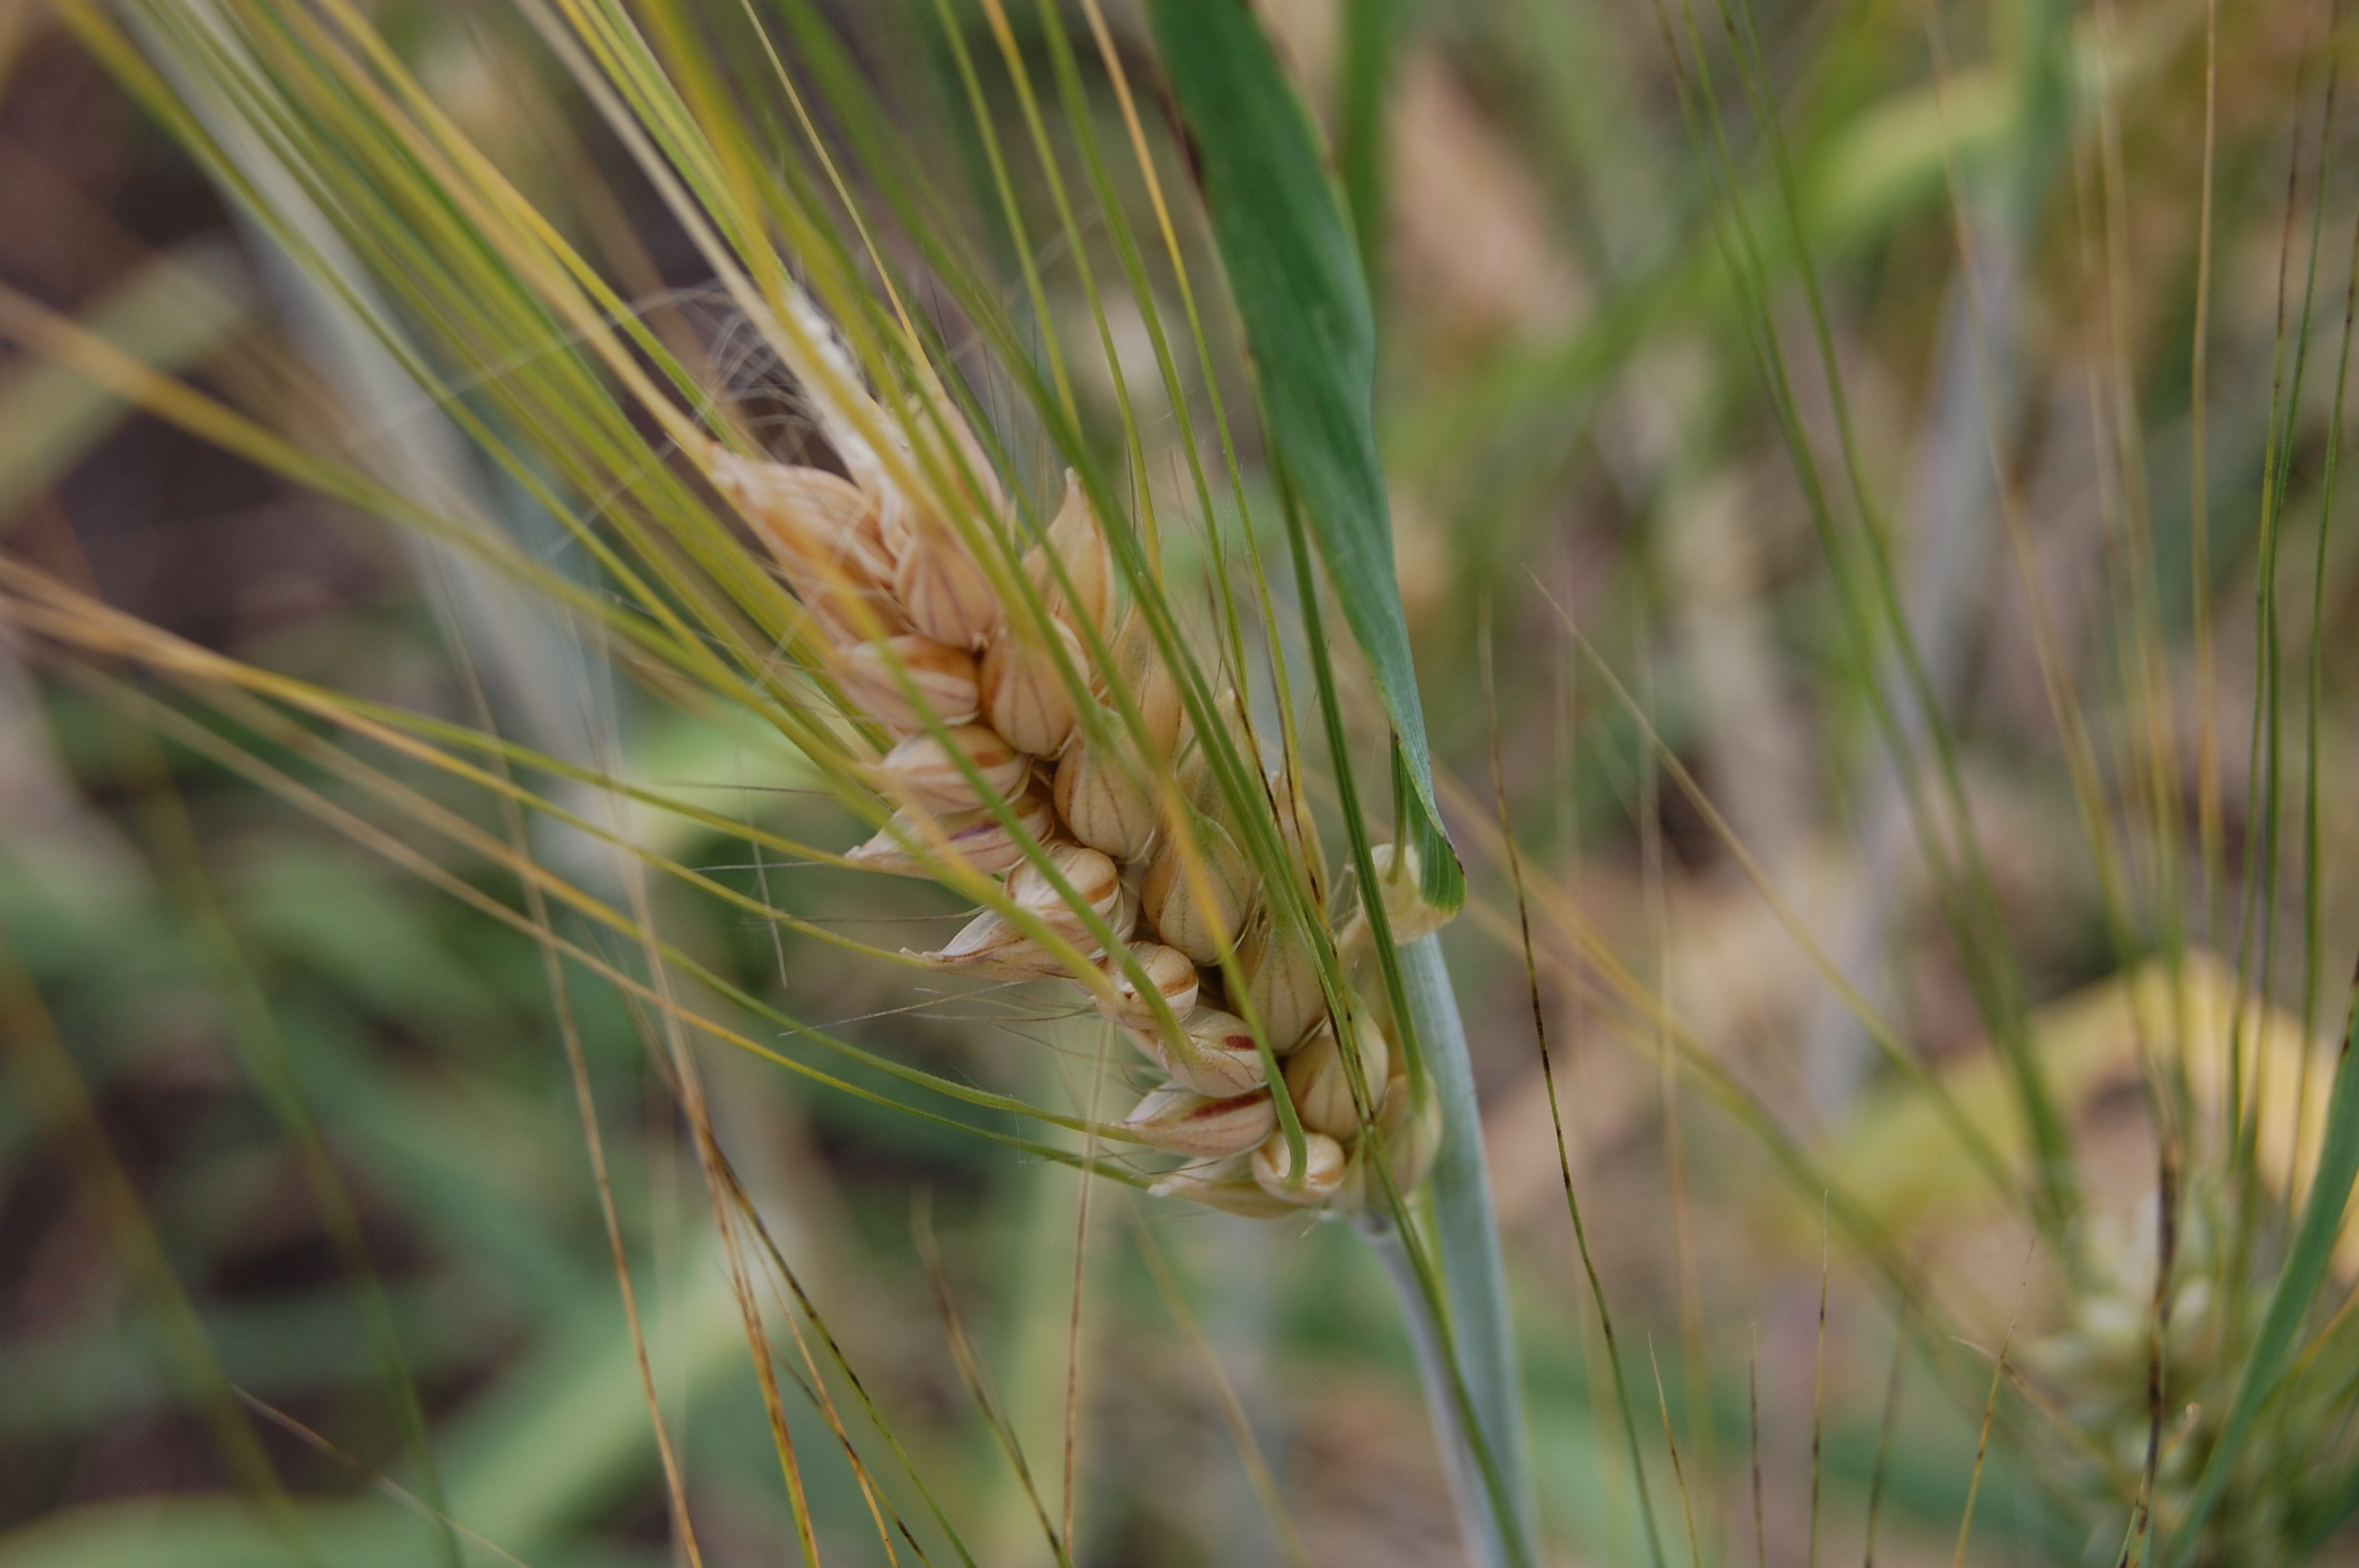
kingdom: Plantae
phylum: Tracheophyta
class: Liliopsida
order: Poales
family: Poaceae
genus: Hordeum
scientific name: Hordeum vulgare
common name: Common barley
